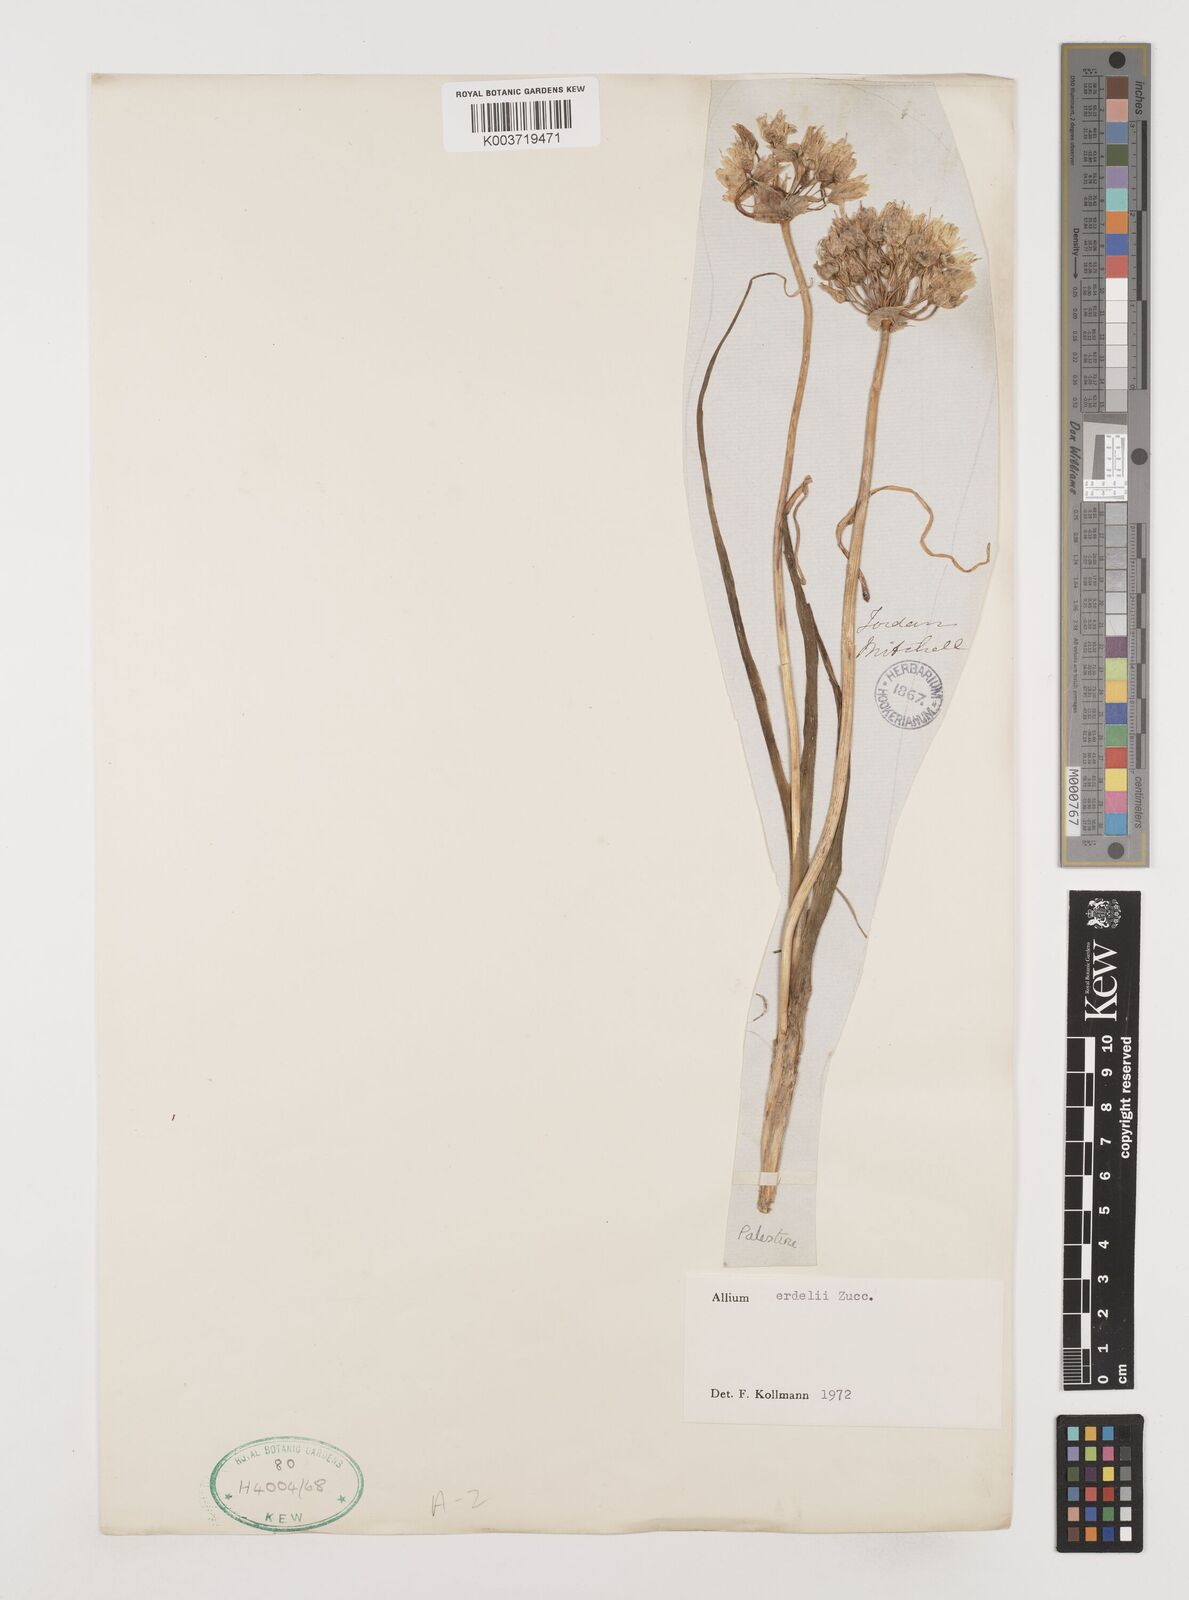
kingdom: Plantae
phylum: Tracheophyta
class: Liliopsida
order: Asparagales
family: Amaryllidaceae
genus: Allium
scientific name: Allium erdelii
